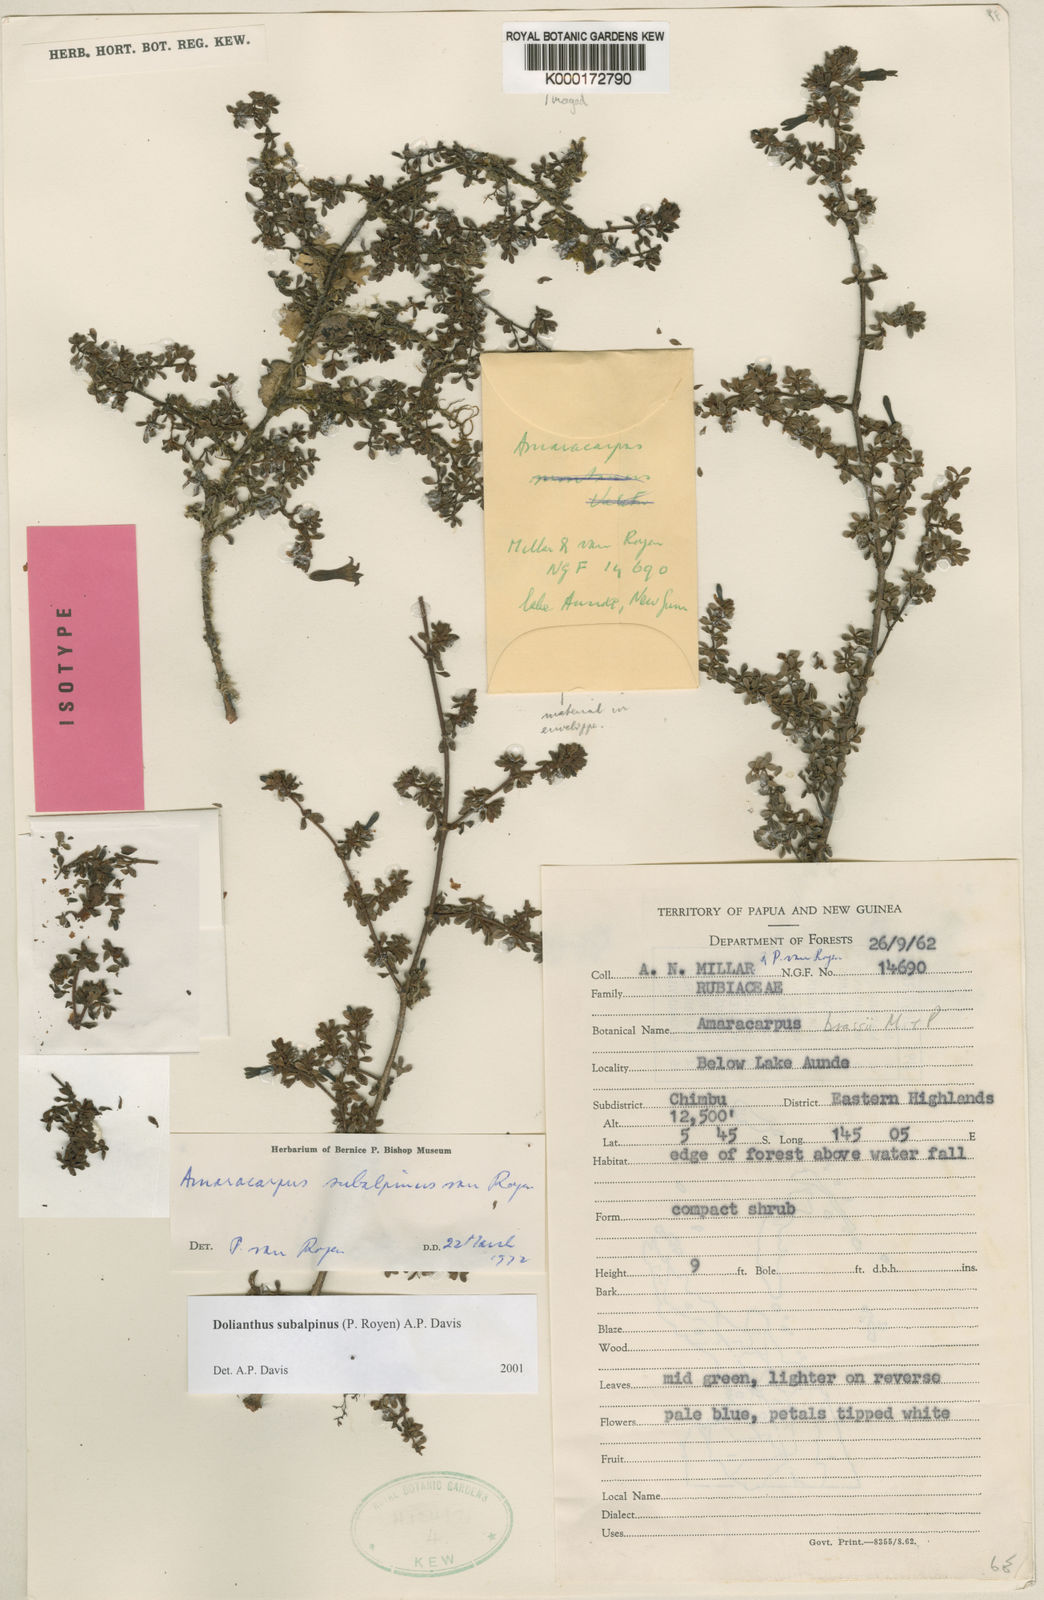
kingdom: Plantae
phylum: Tracheophyta
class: Magnoliopsida
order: Gentianales
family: Rubiaceae
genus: Dolianthus
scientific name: Dolianthus subalpinus
